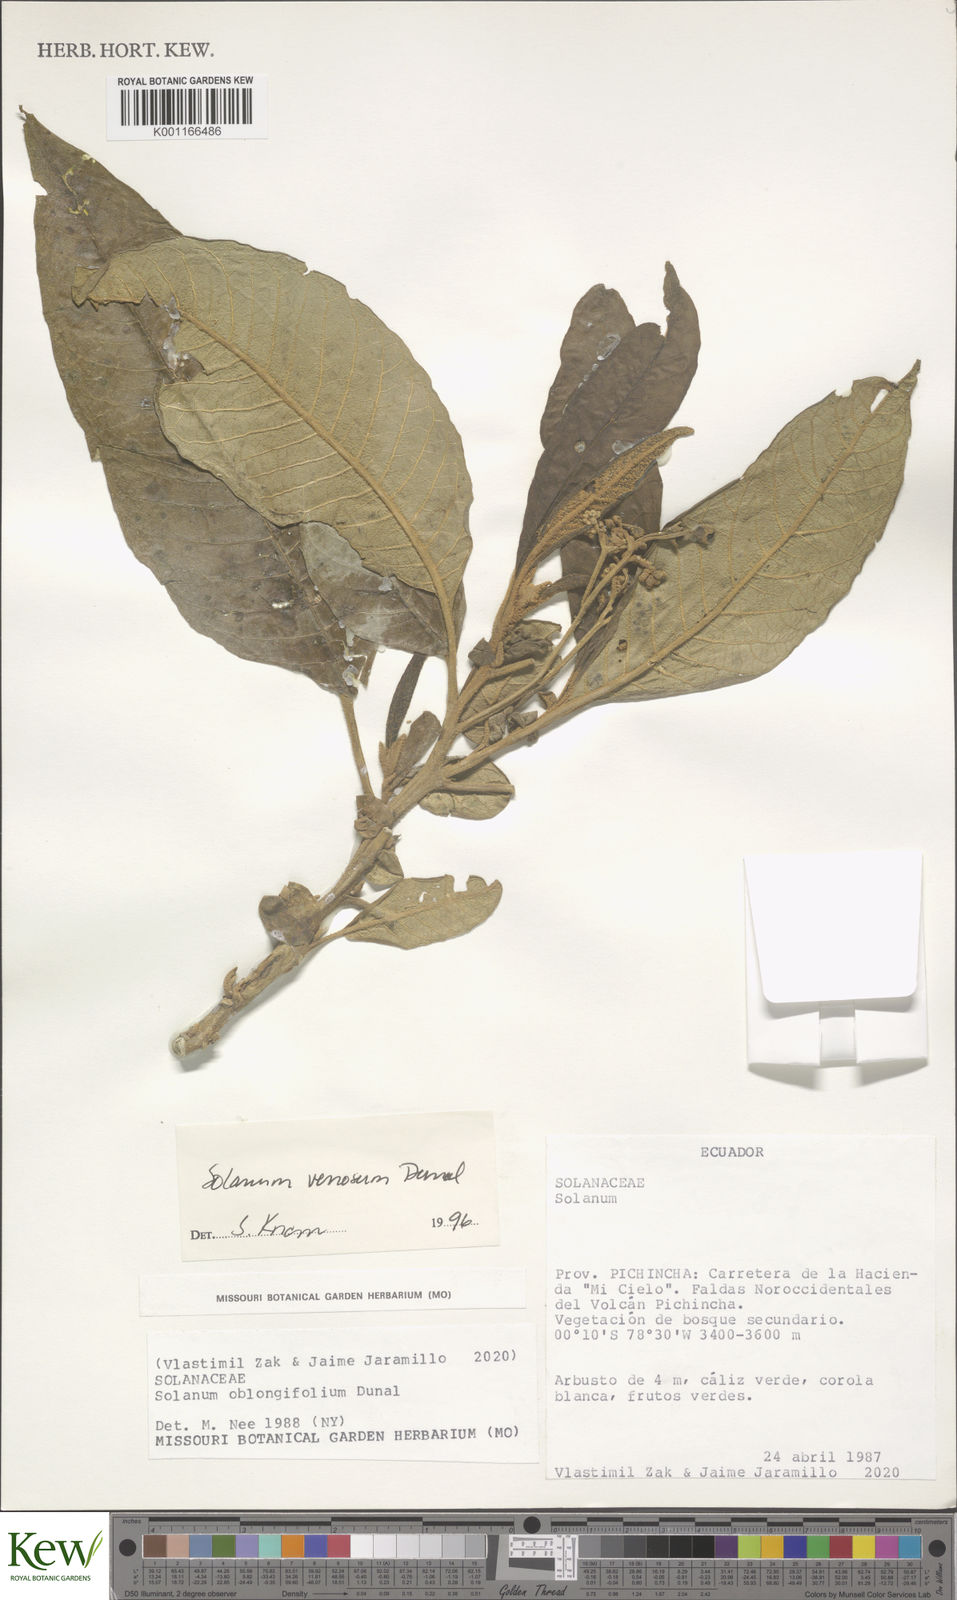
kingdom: Plantae
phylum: Tracheophyta
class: Magnoliopsida
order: Solanales
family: Solanaceae
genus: Solanum
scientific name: Solanum venosum
